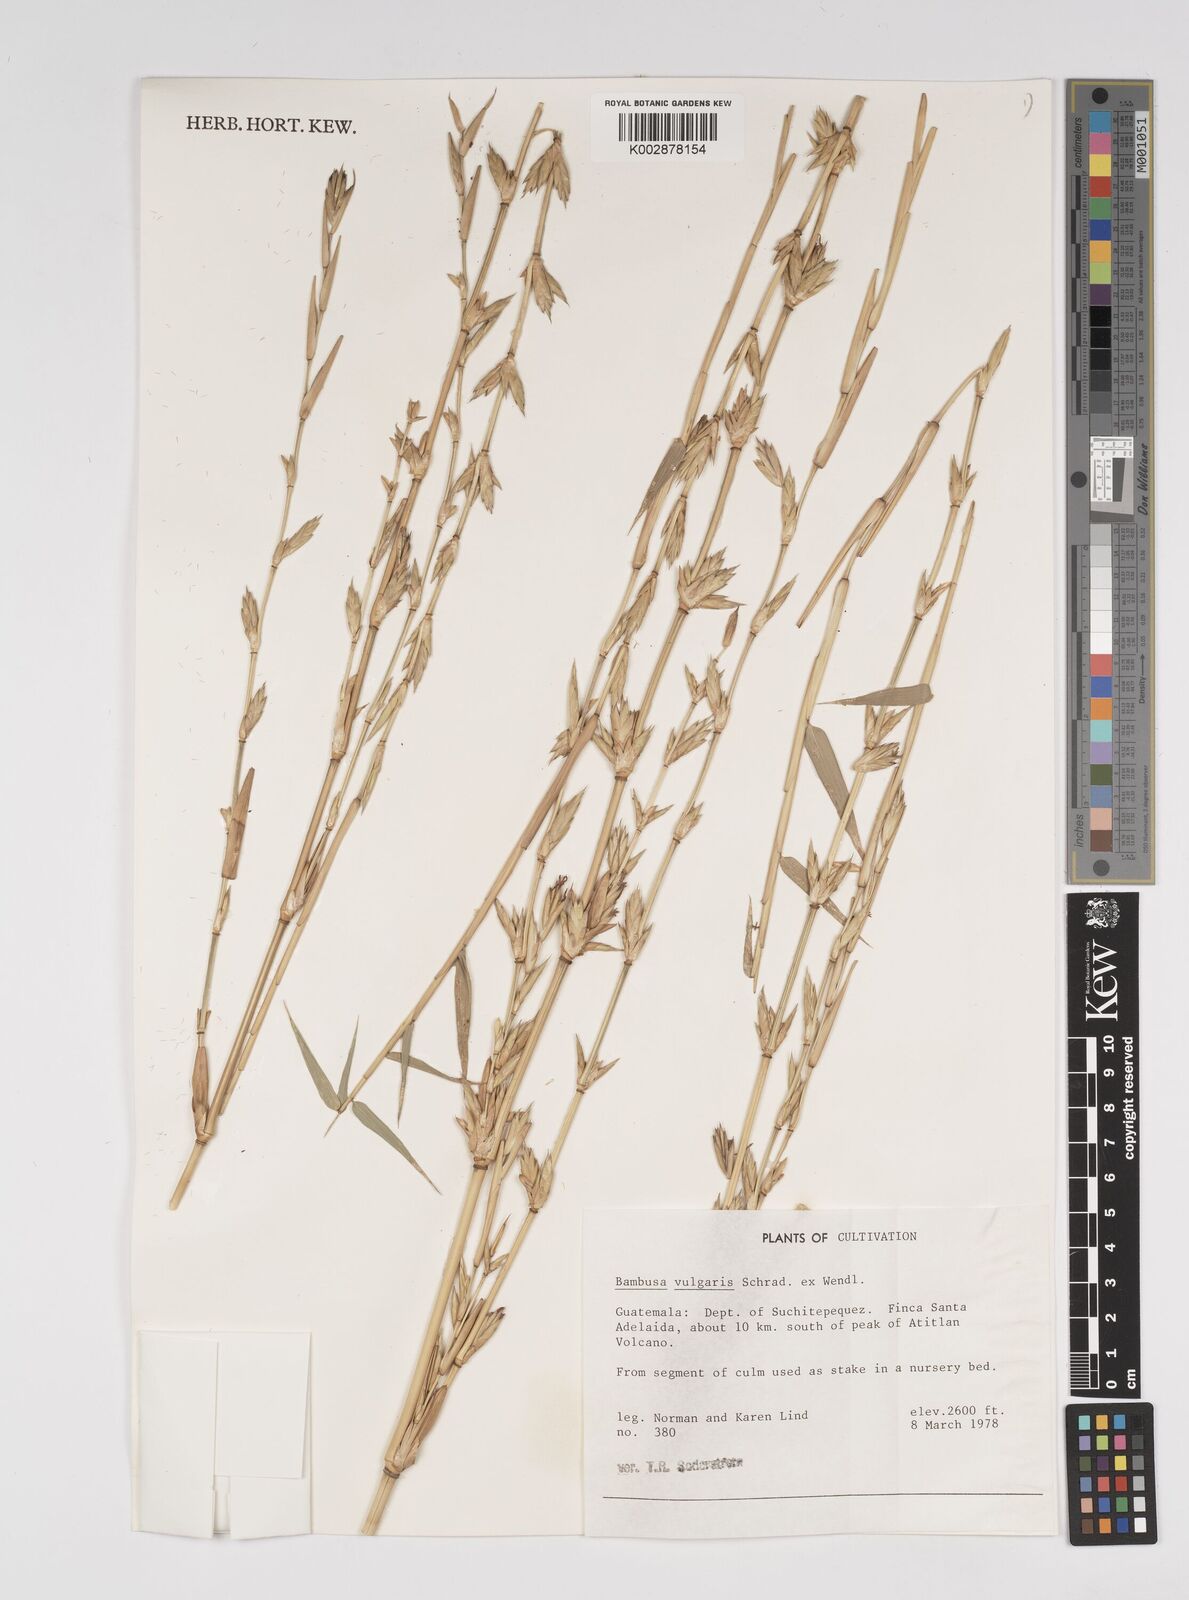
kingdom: Plantae
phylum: Tracheophyta
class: Liliopsida
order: Poales
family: Poaceae
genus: Bambusa
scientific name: Bambusa
